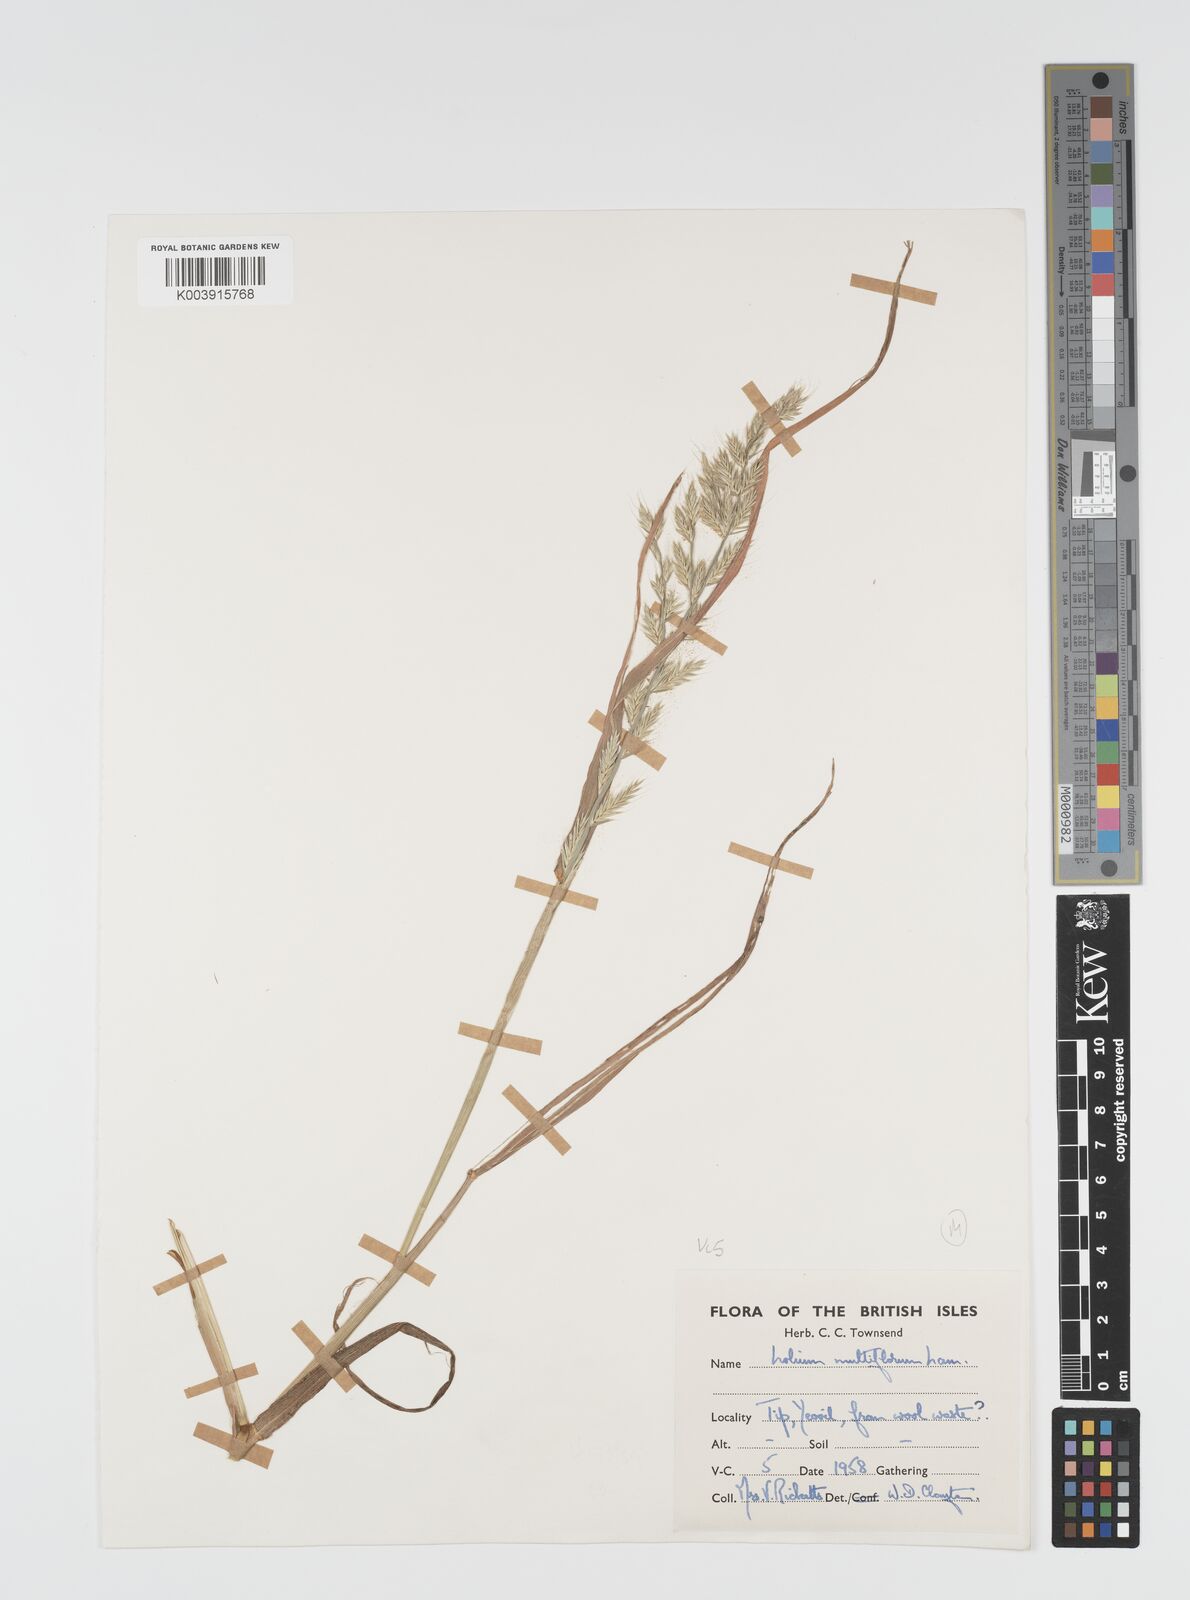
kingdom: Plantae
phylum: Tracheophyta
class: Liliopsida
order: Poales
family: Poaceae
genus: Lolium
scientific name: Lolium multiflorum
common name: Annual ryegrass
